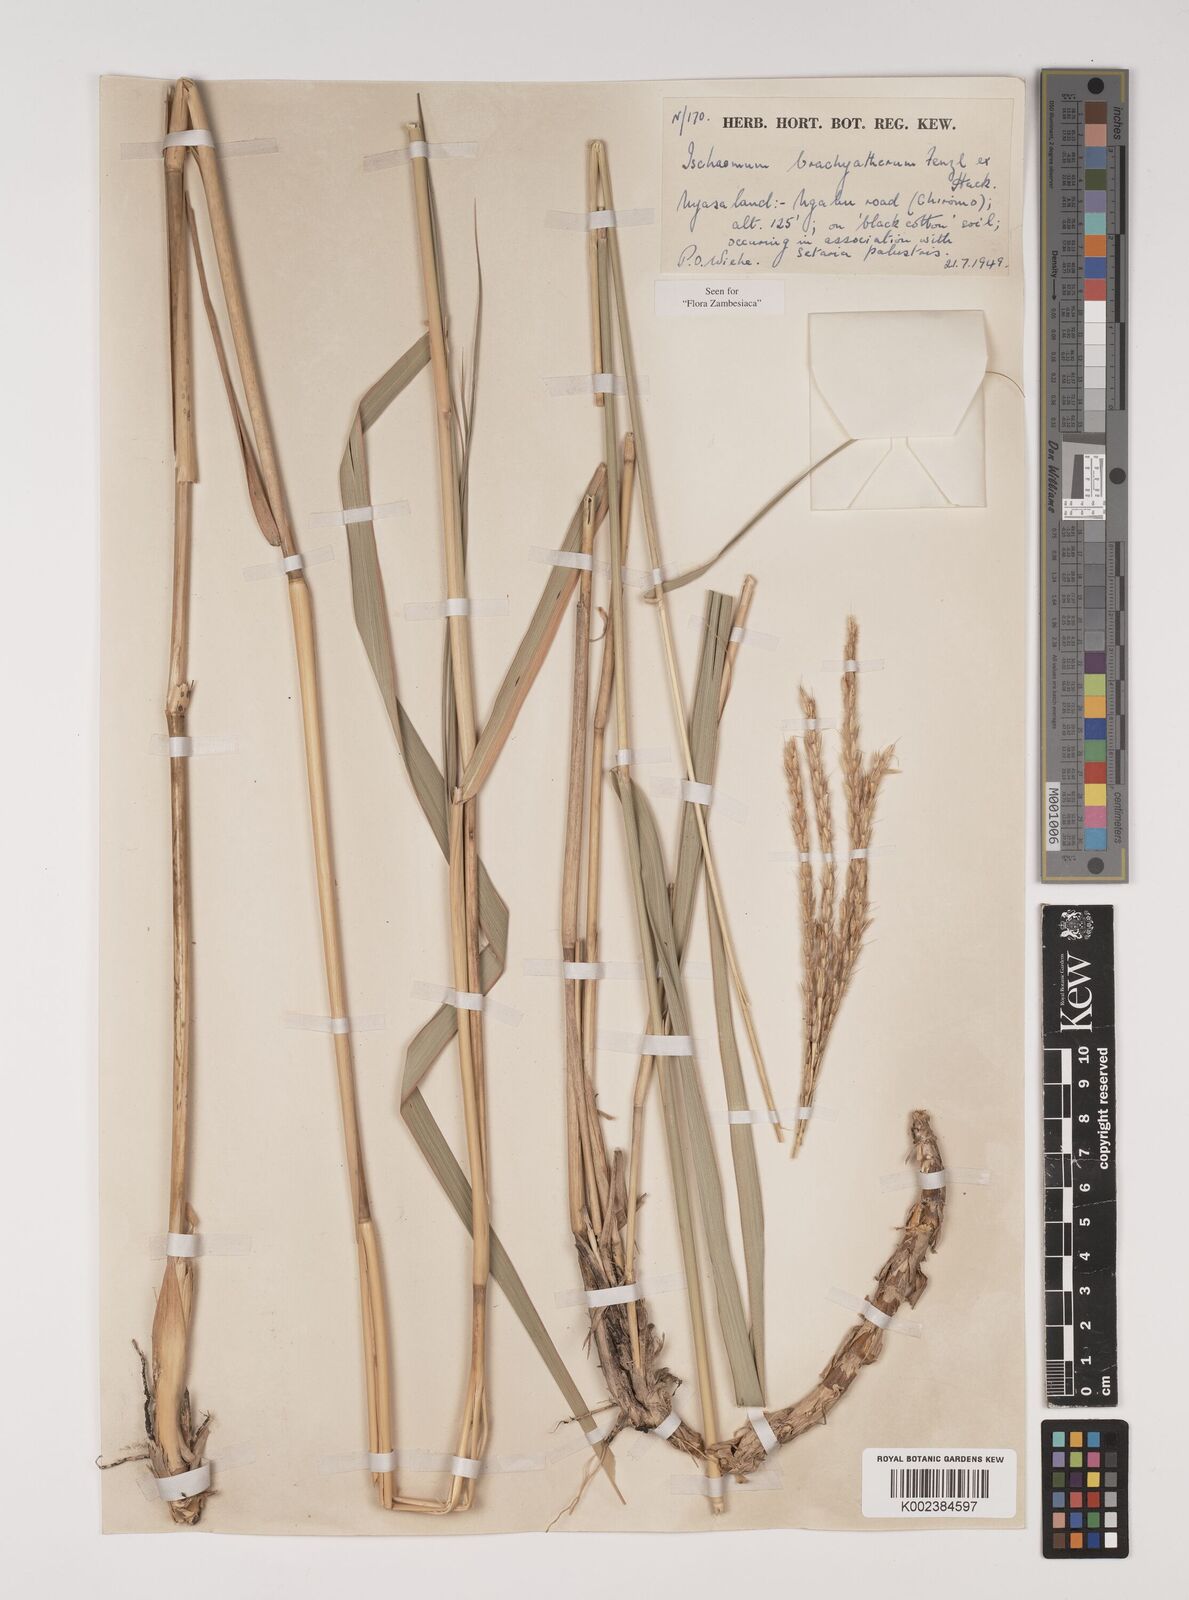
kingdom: Plantae
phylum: Tracheophyta
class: Liliopsida
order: Poales
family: Poaceae
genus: Ischaemum
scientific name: Ischaemum afrum
